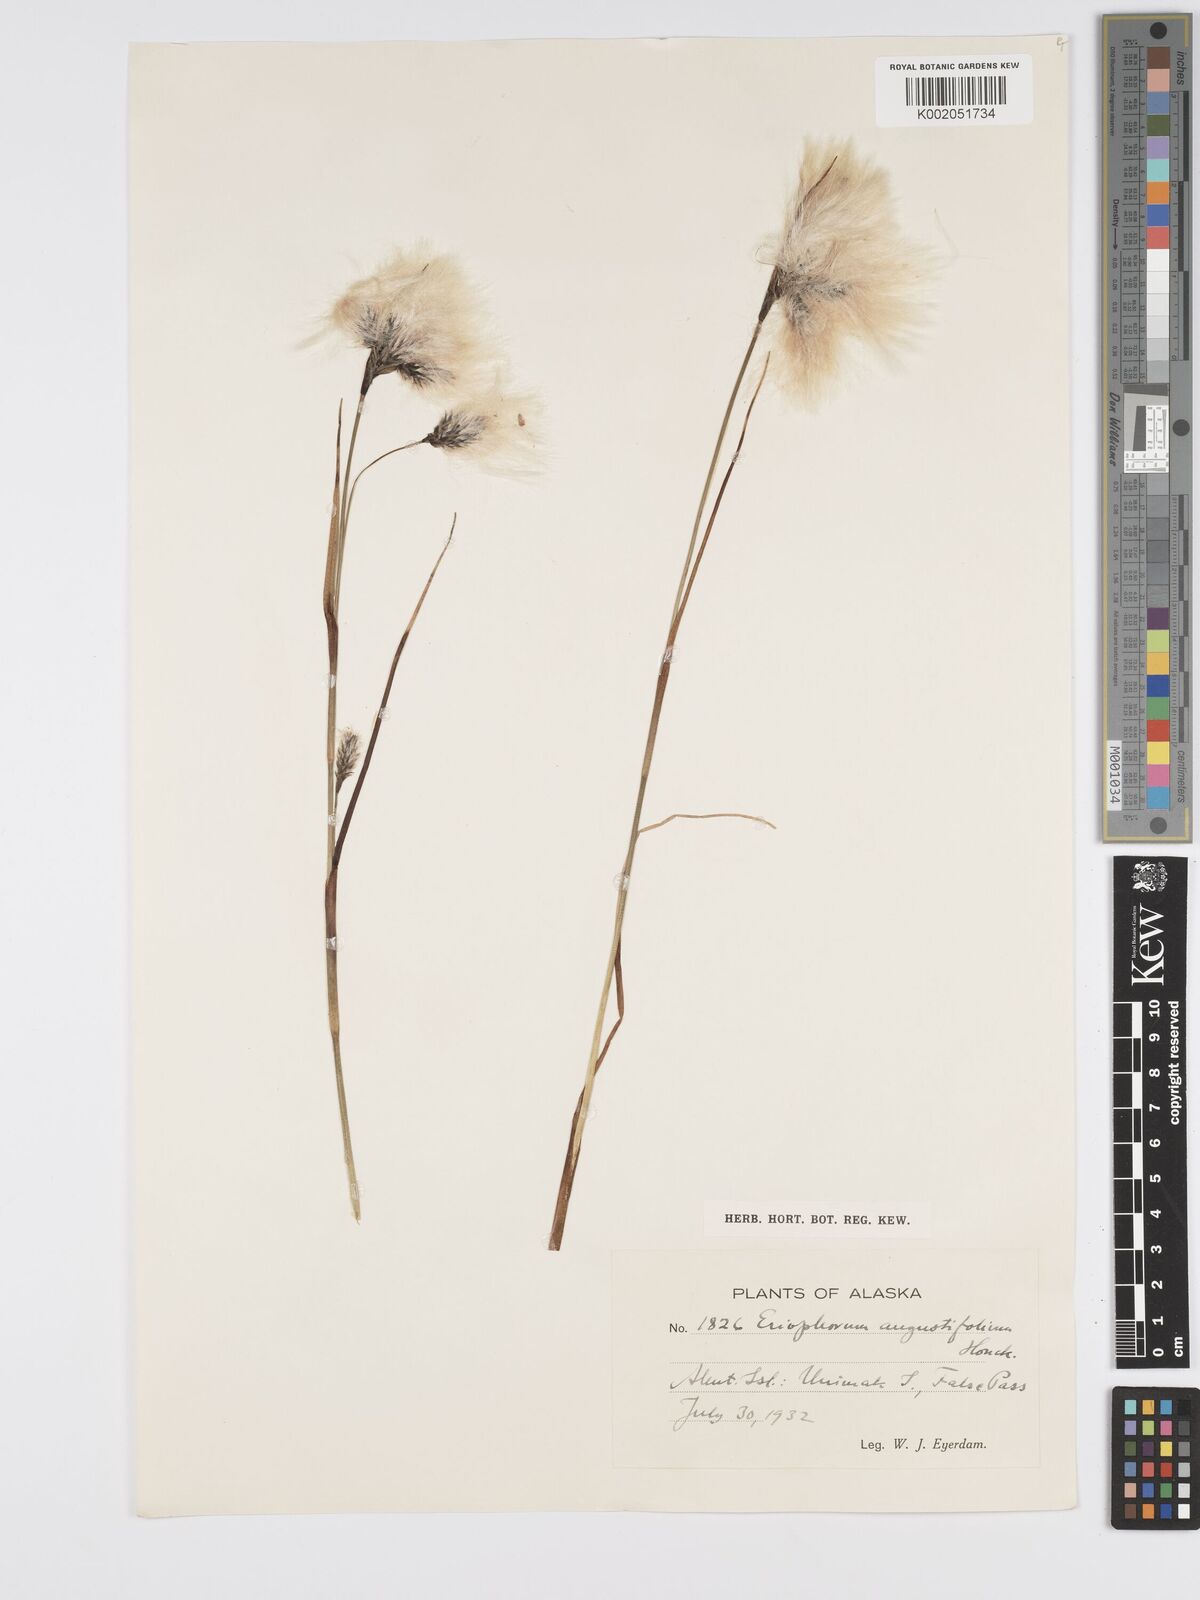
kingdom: Plantae
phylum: Tracheophyta
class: Liliopsida
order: Poales
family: Cyperaceae
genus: Eriophorum
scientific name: Eriophorum angustifolium
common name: Common cottongrass
